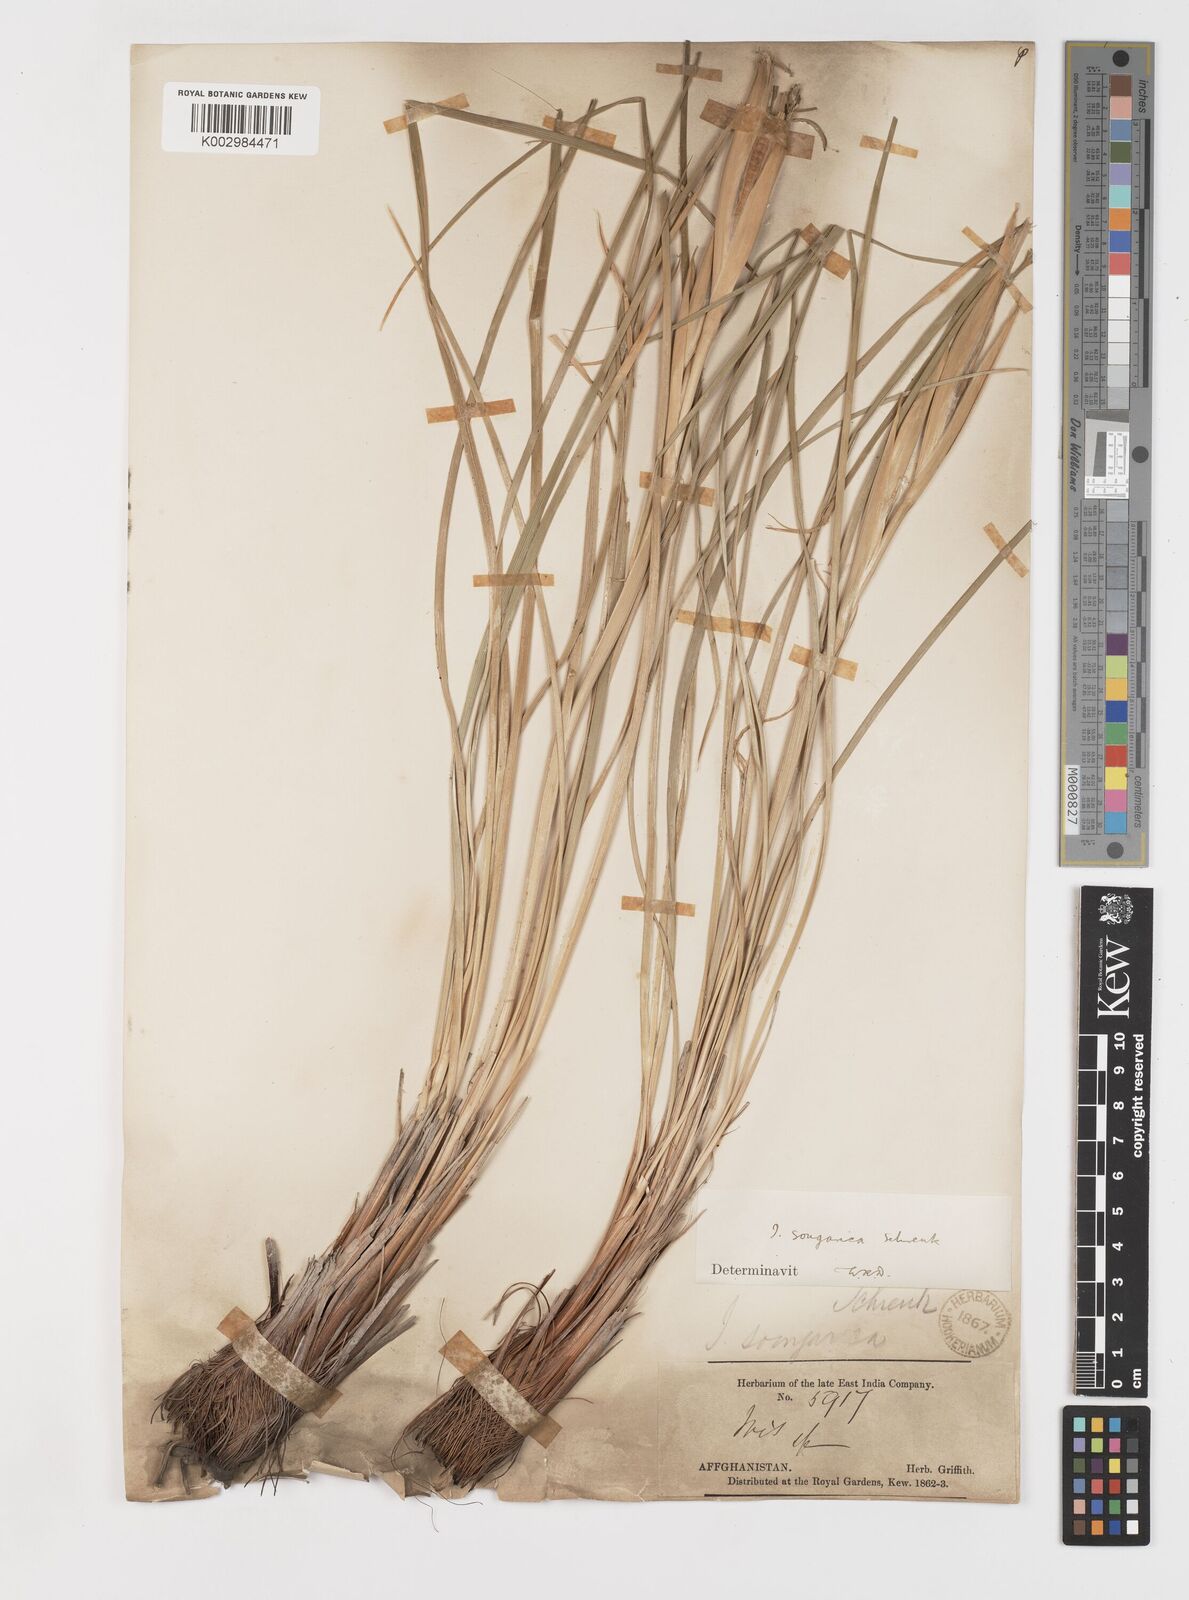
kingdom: Plantae
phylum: Tracheophyta
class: Liliopsida
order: Asparagales
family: Iridaceae
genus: Iris
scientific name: Iris songarica
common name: Songar iris
